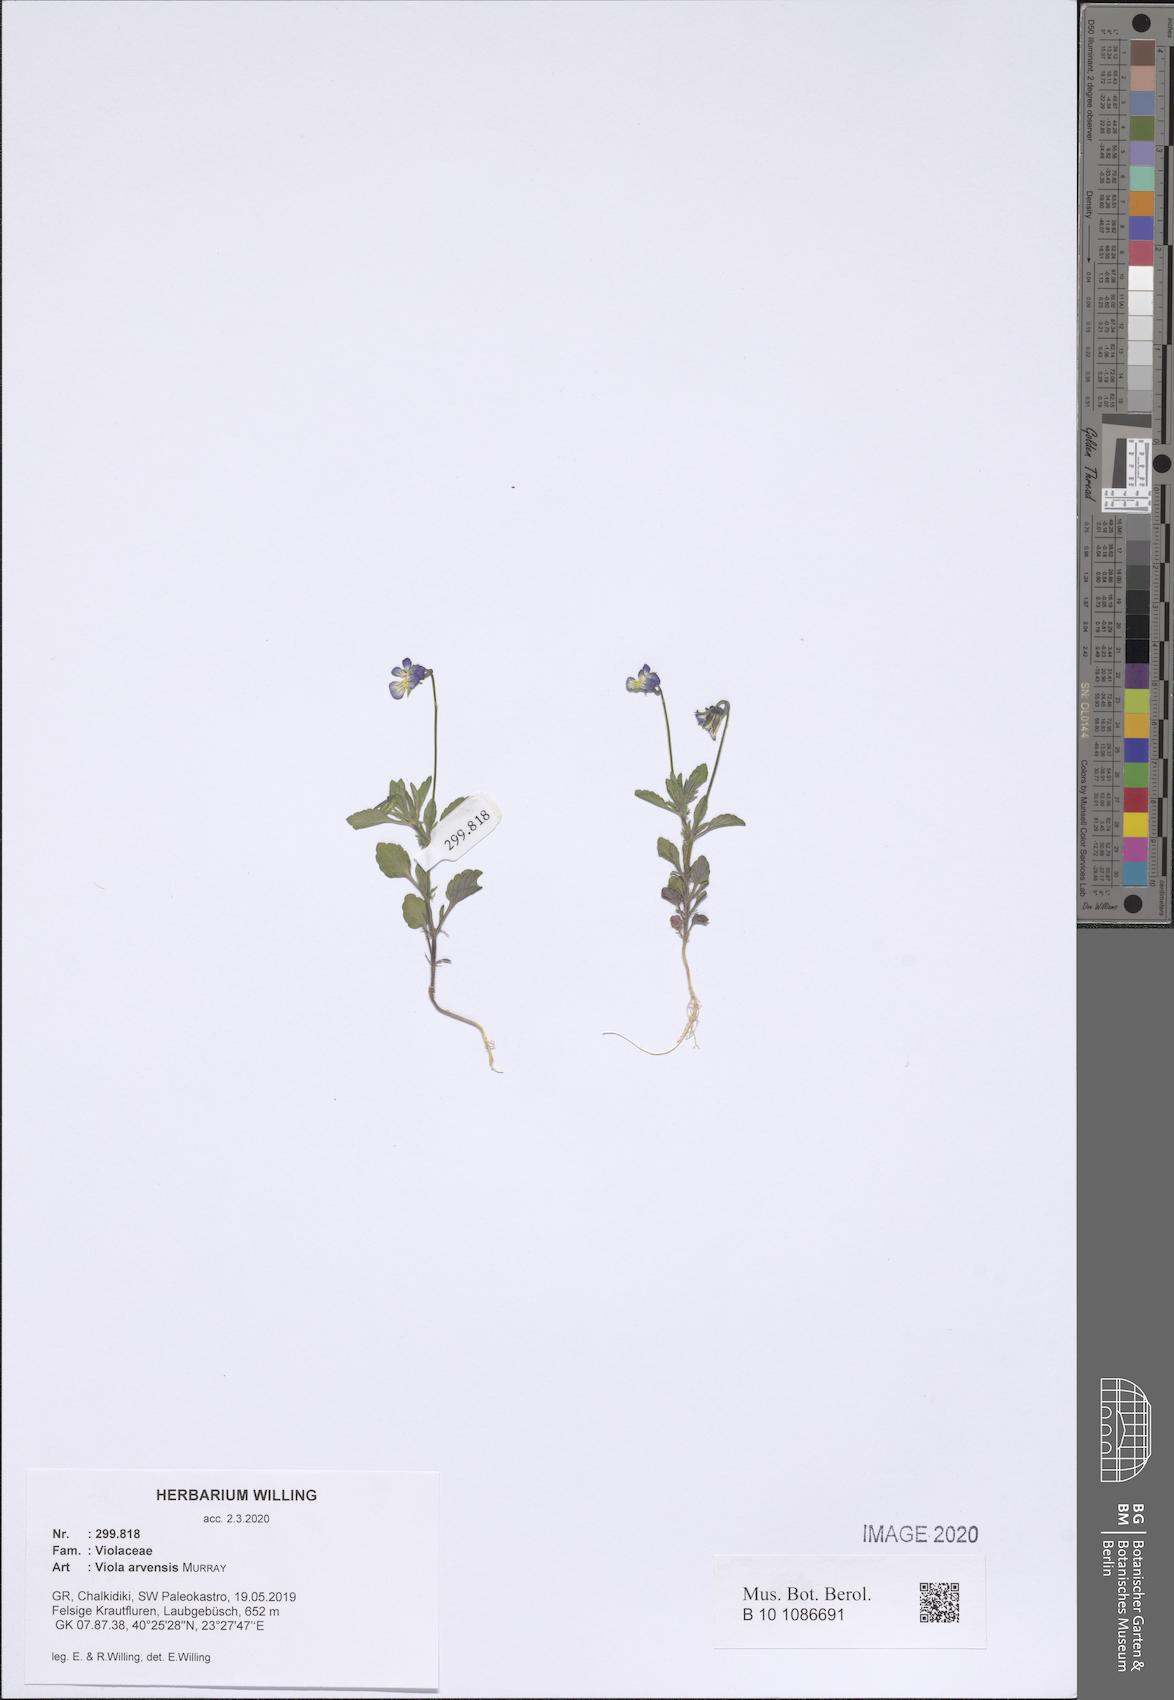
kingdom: Plantae
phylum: Tracheophyta
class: Magnoliopsida
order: Malpighiales
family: Violaceae
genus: Viola
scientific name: Viola arvensis
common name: Field pansy
